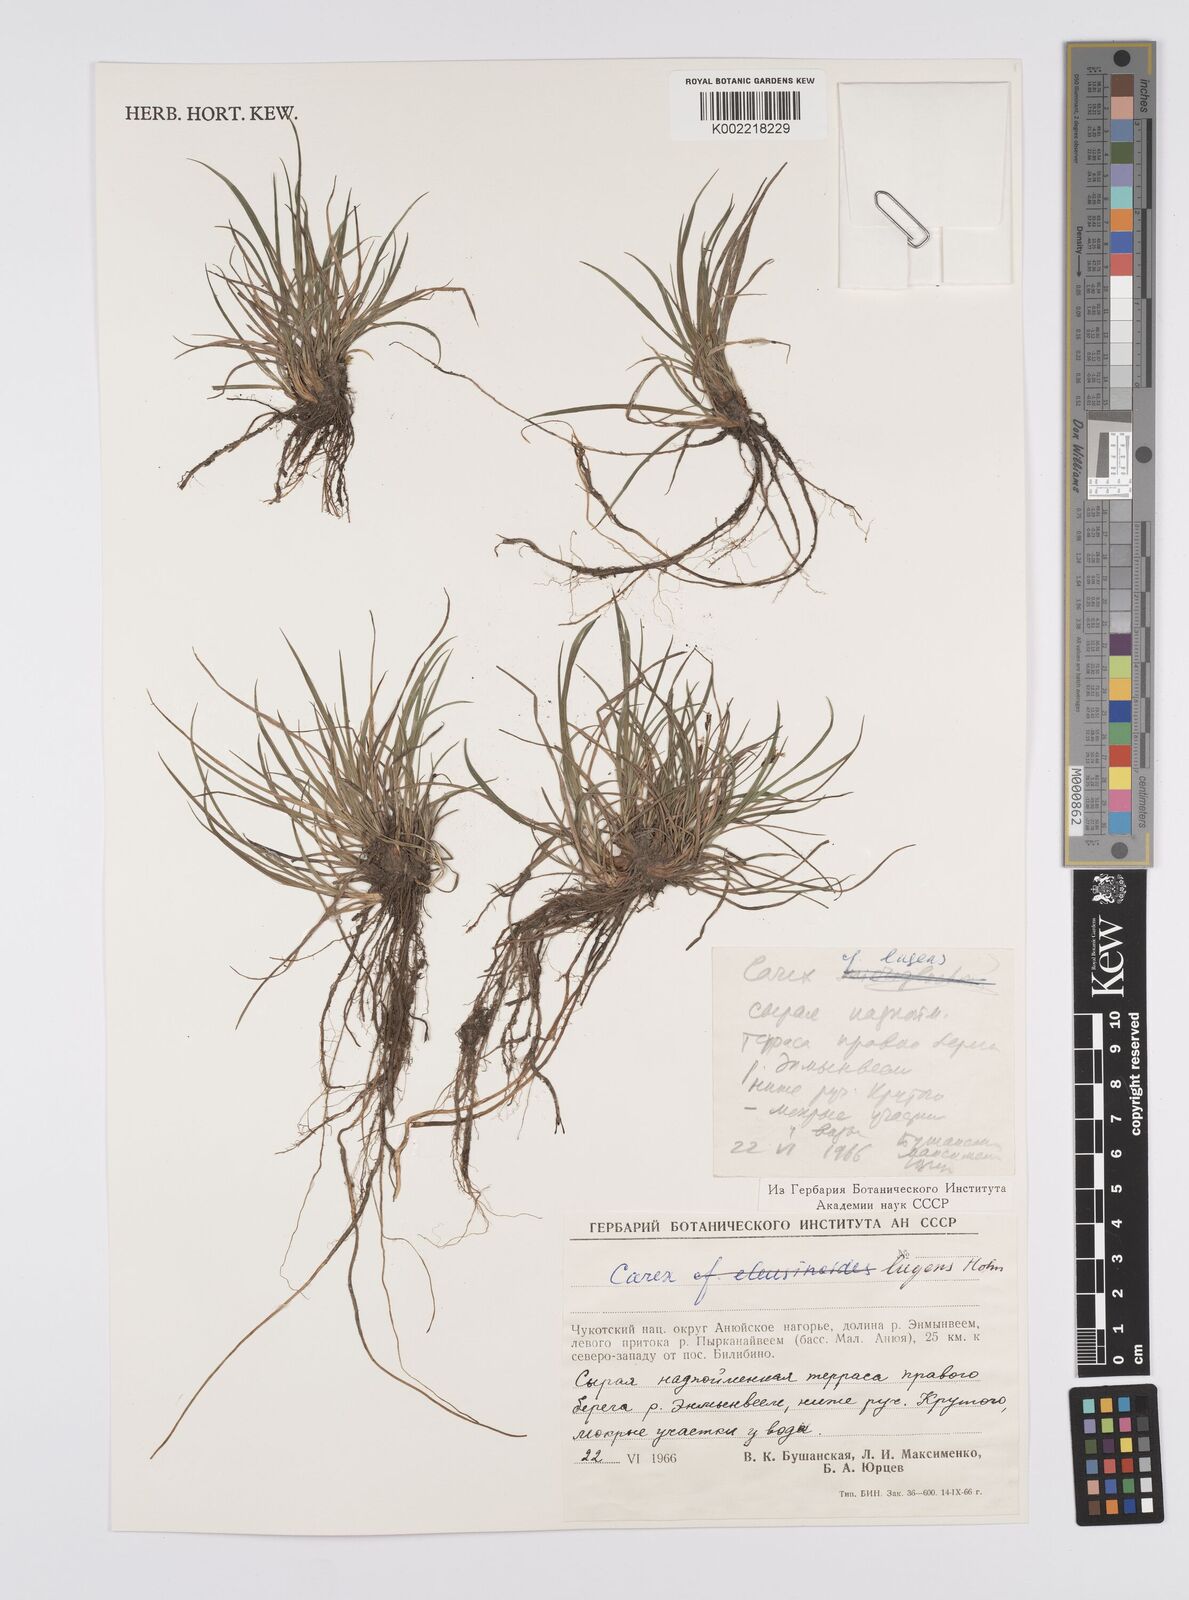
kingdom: Plantae
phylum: Tracheophyta
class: Liliopsida
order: Poales
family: Cyperaceae
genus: Carex
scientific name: Carex bigelowii
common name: Stiff sedge
